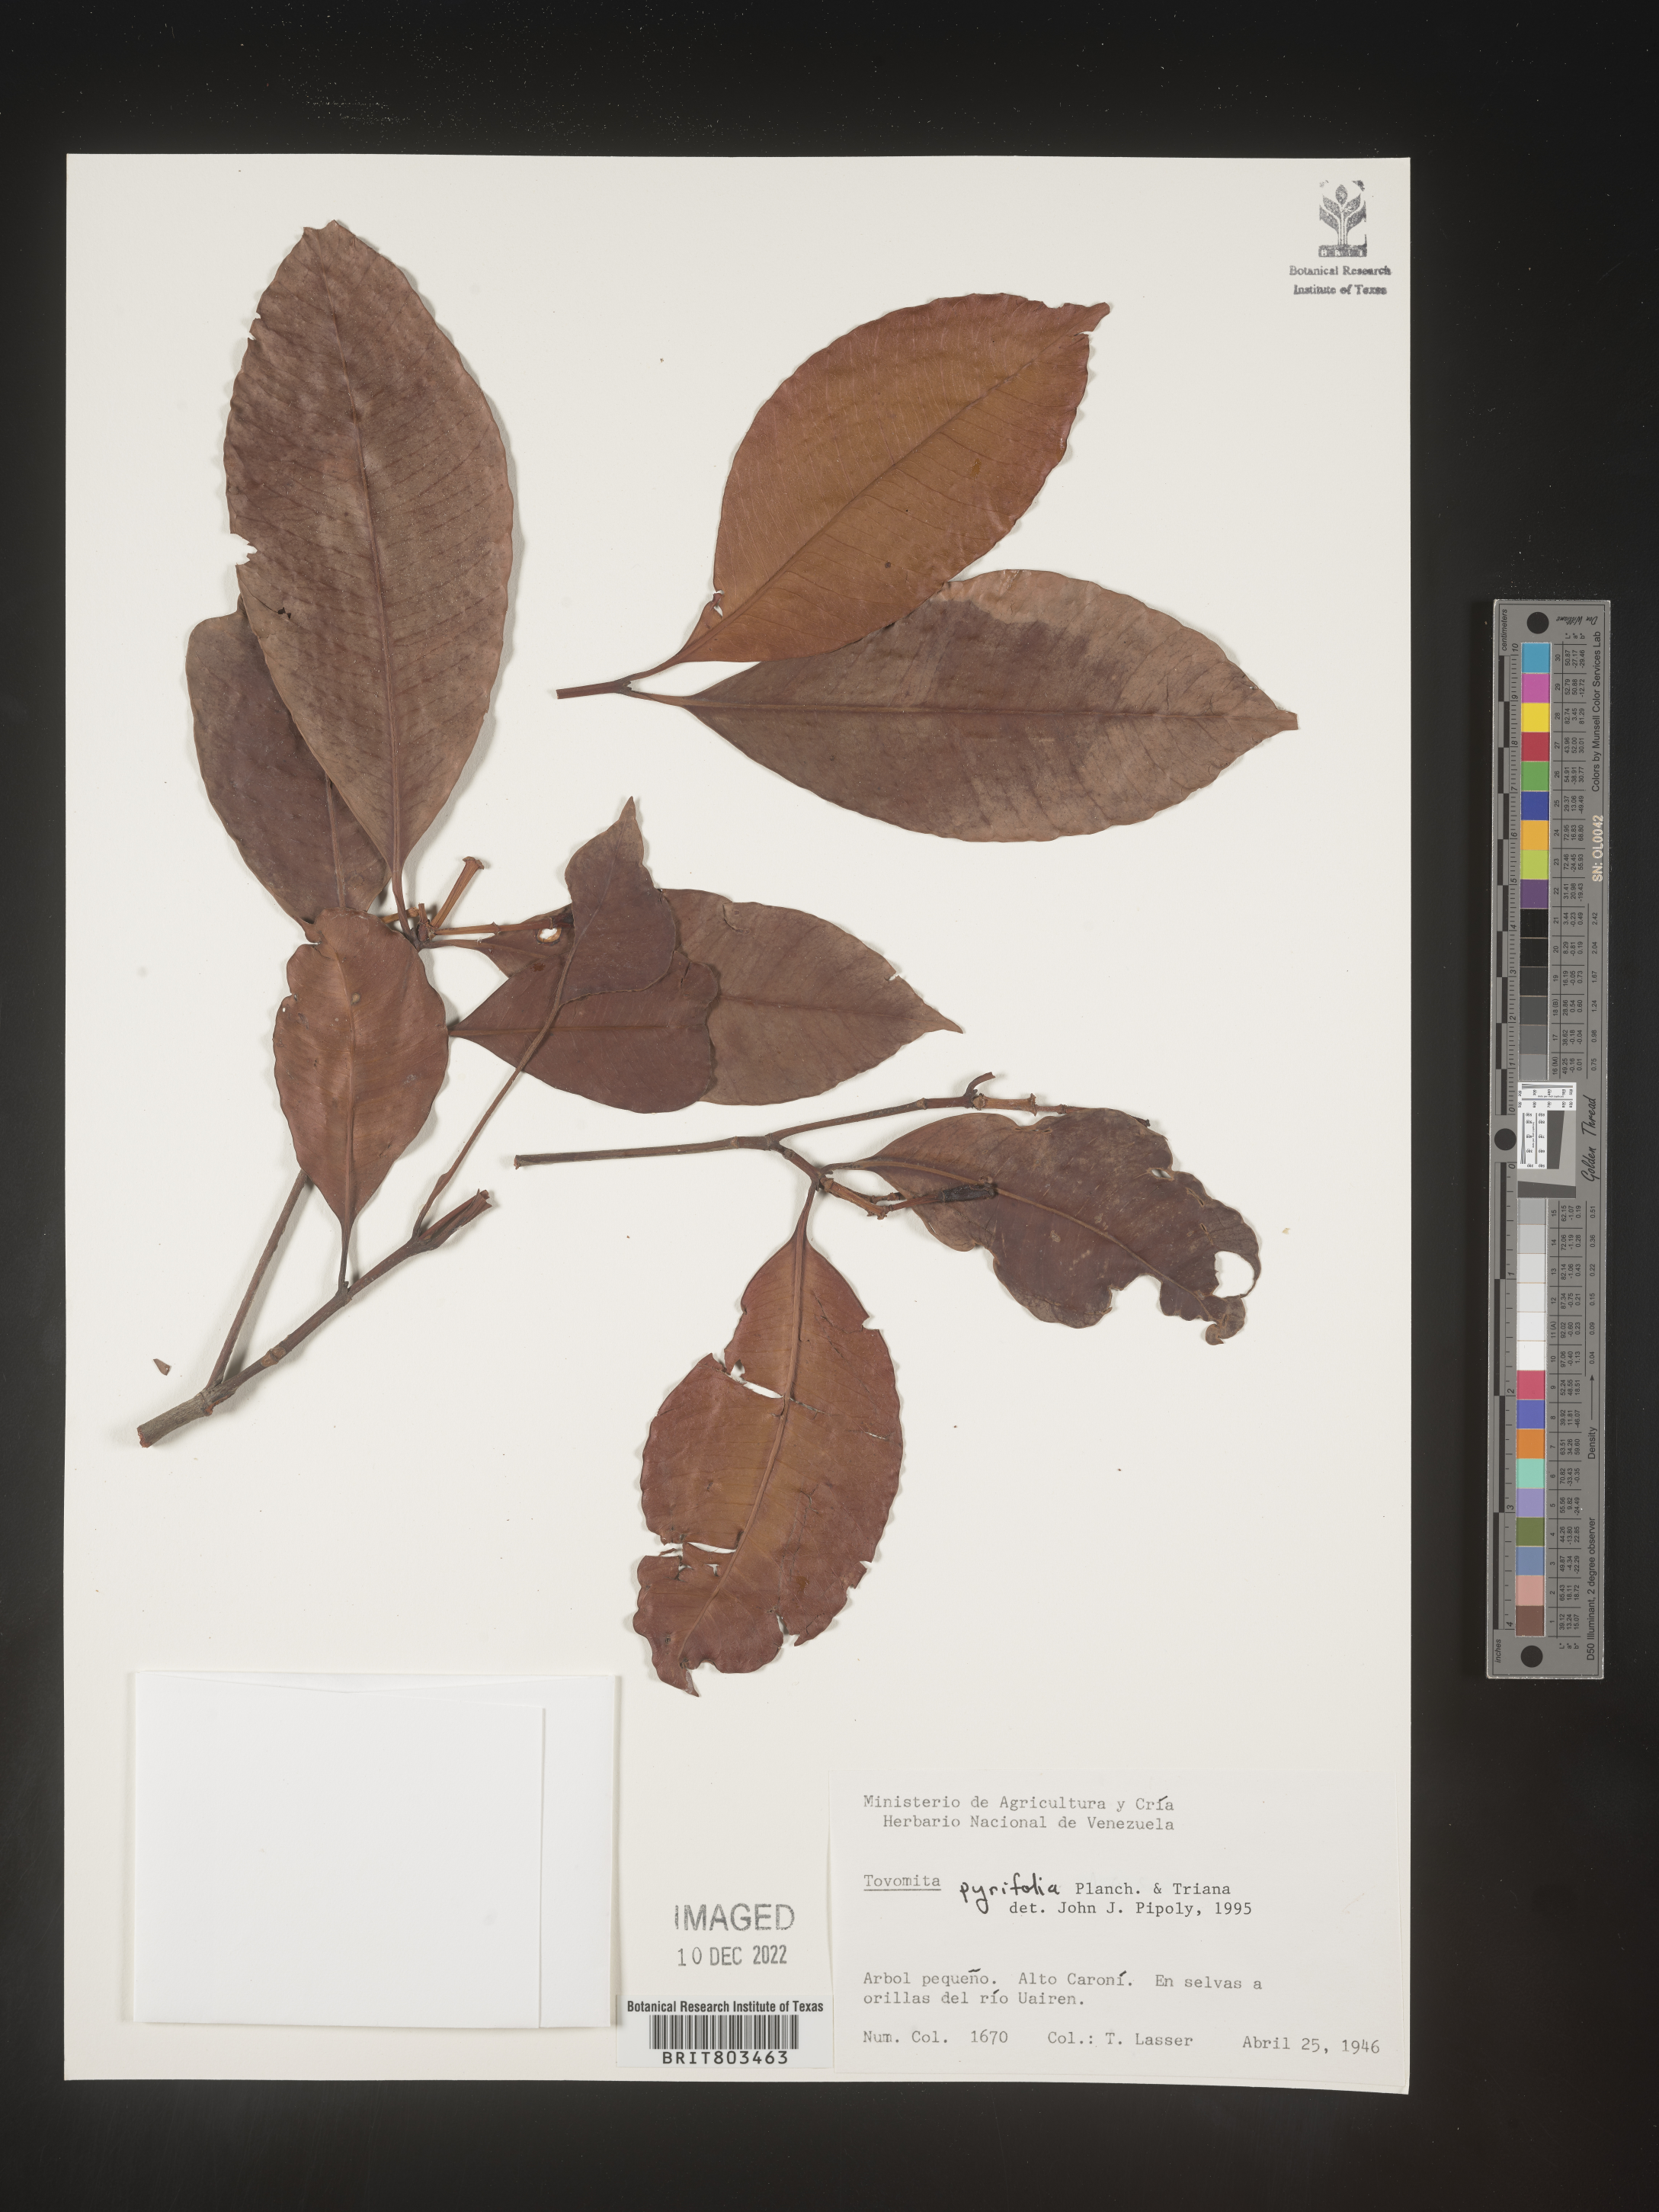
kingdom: Plantae
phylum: Tracheophyta
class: Magnoliopsida
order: Malpighiales
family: Clusiaceae
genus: Tovomita
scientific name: Tovomita
